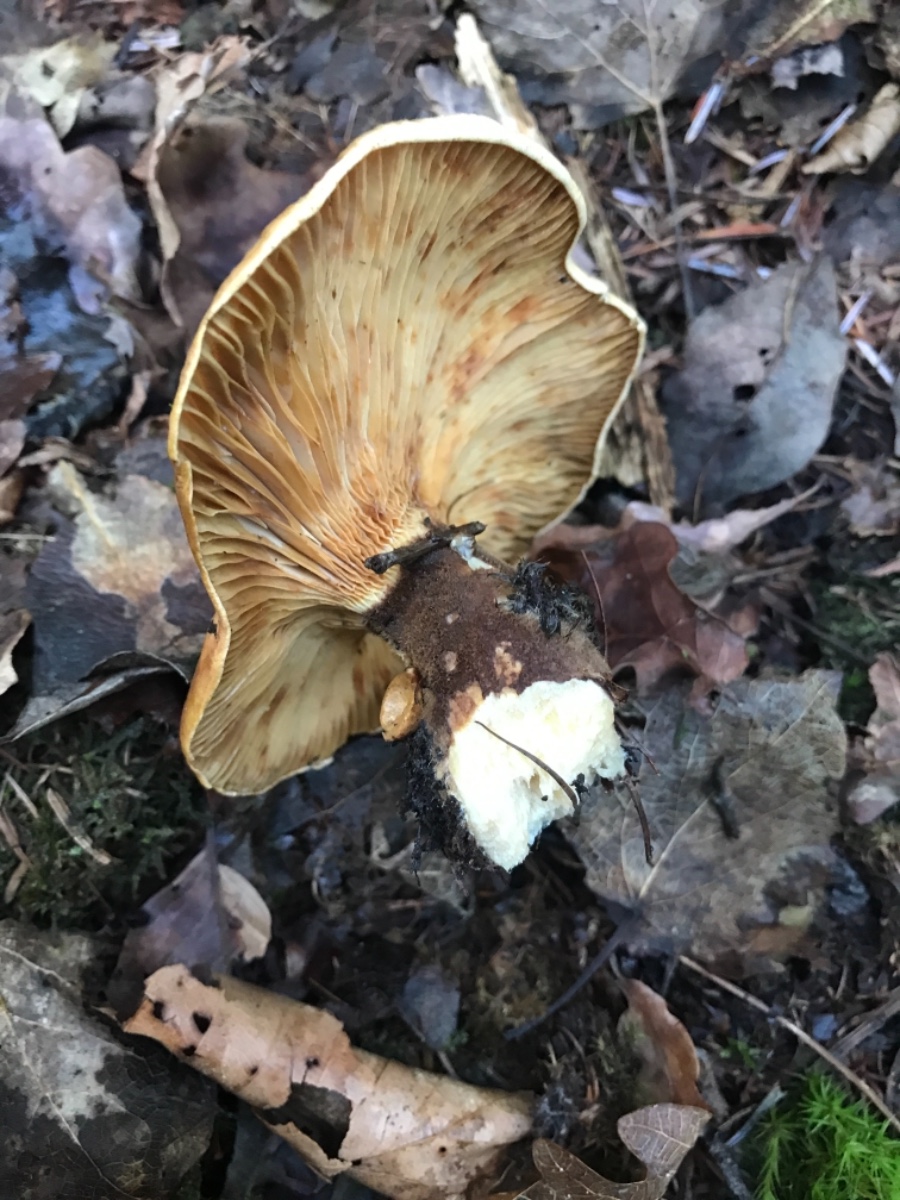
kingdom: Fungi
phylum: Basidiomycota
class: Agaricomycetes
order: Boletales
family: Tapinellaceae
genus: Tapinella
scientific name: Tapinella atrotomentosa
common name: sortfiltet viftesvamp
